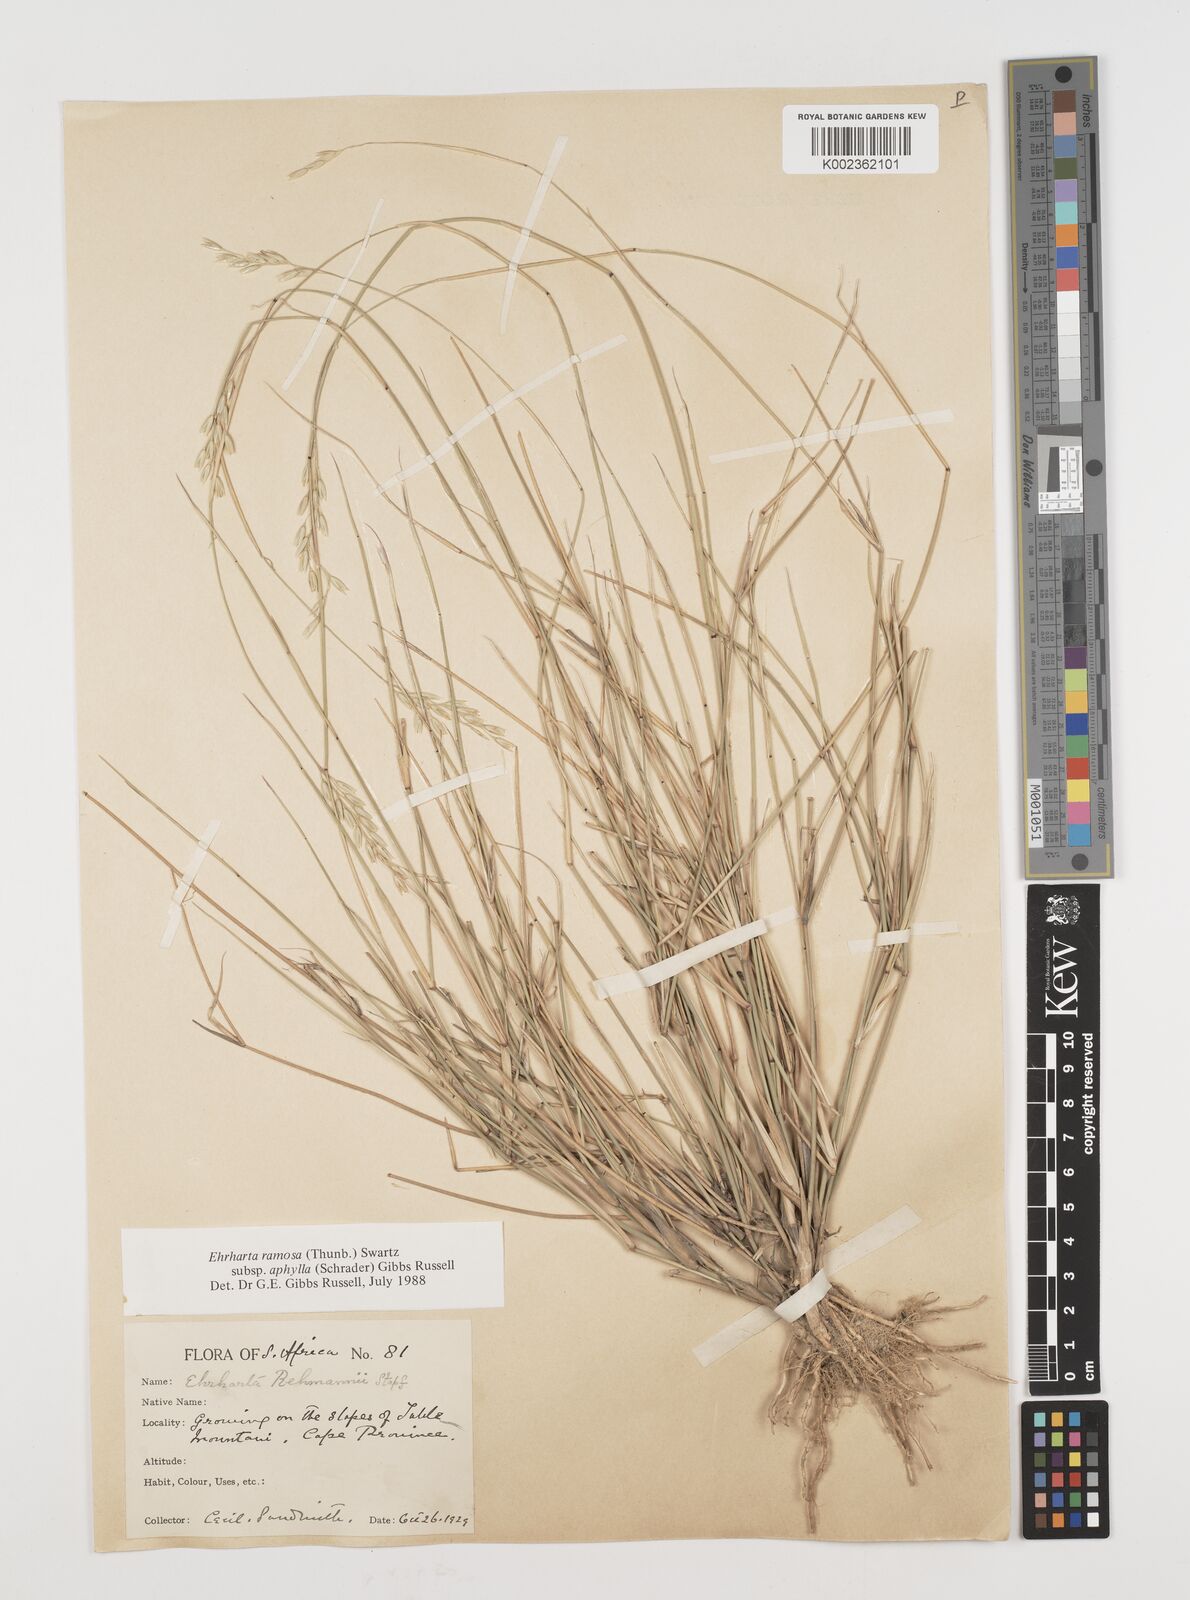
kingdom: Plantae
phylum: Tracheophyta
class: Liliopsida
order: Poales
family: Poaceae
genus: Ehrharta
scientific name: Ehrharta digyna
